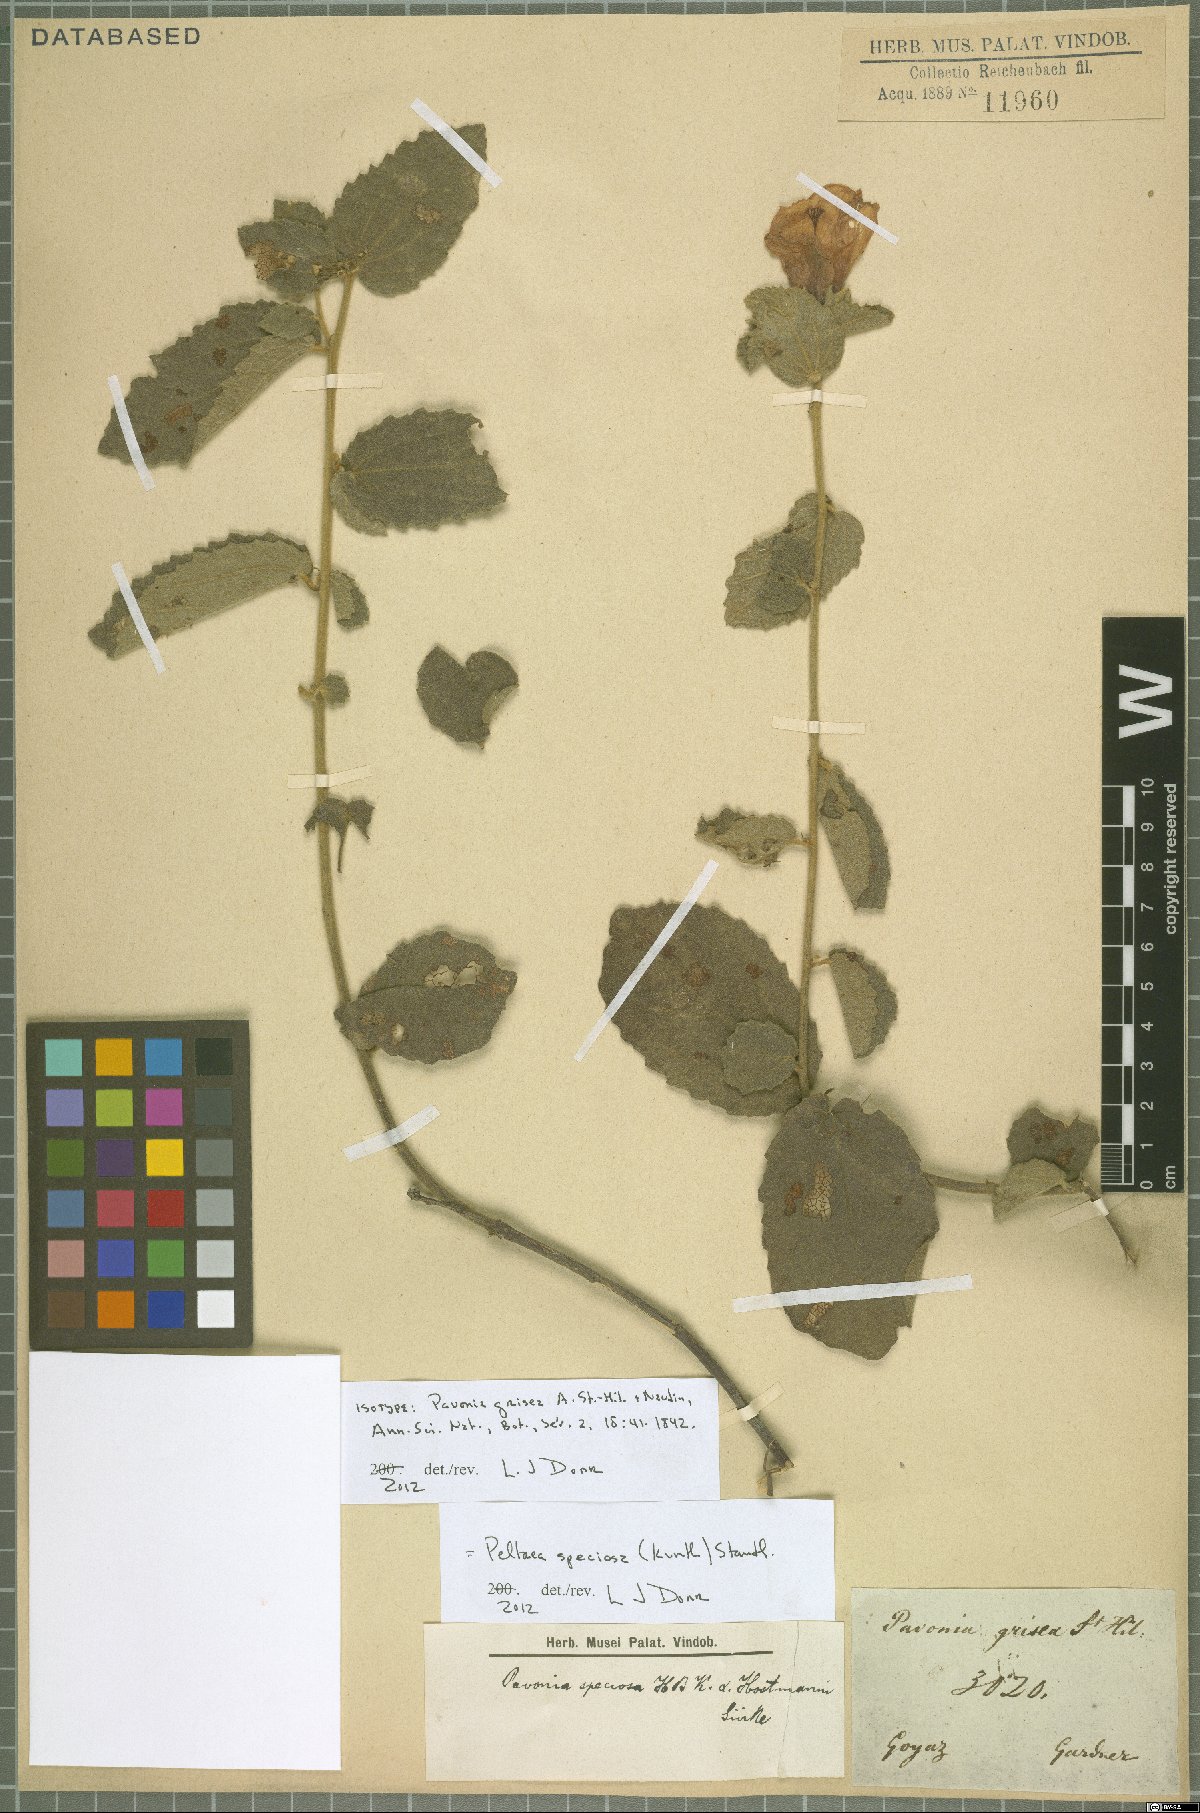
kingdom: Plantae
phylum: Tracheophyta
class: Magnoliopsida
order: Malvales
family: Malvaceae
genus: Peltaea
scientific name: Peltaea speciosa
